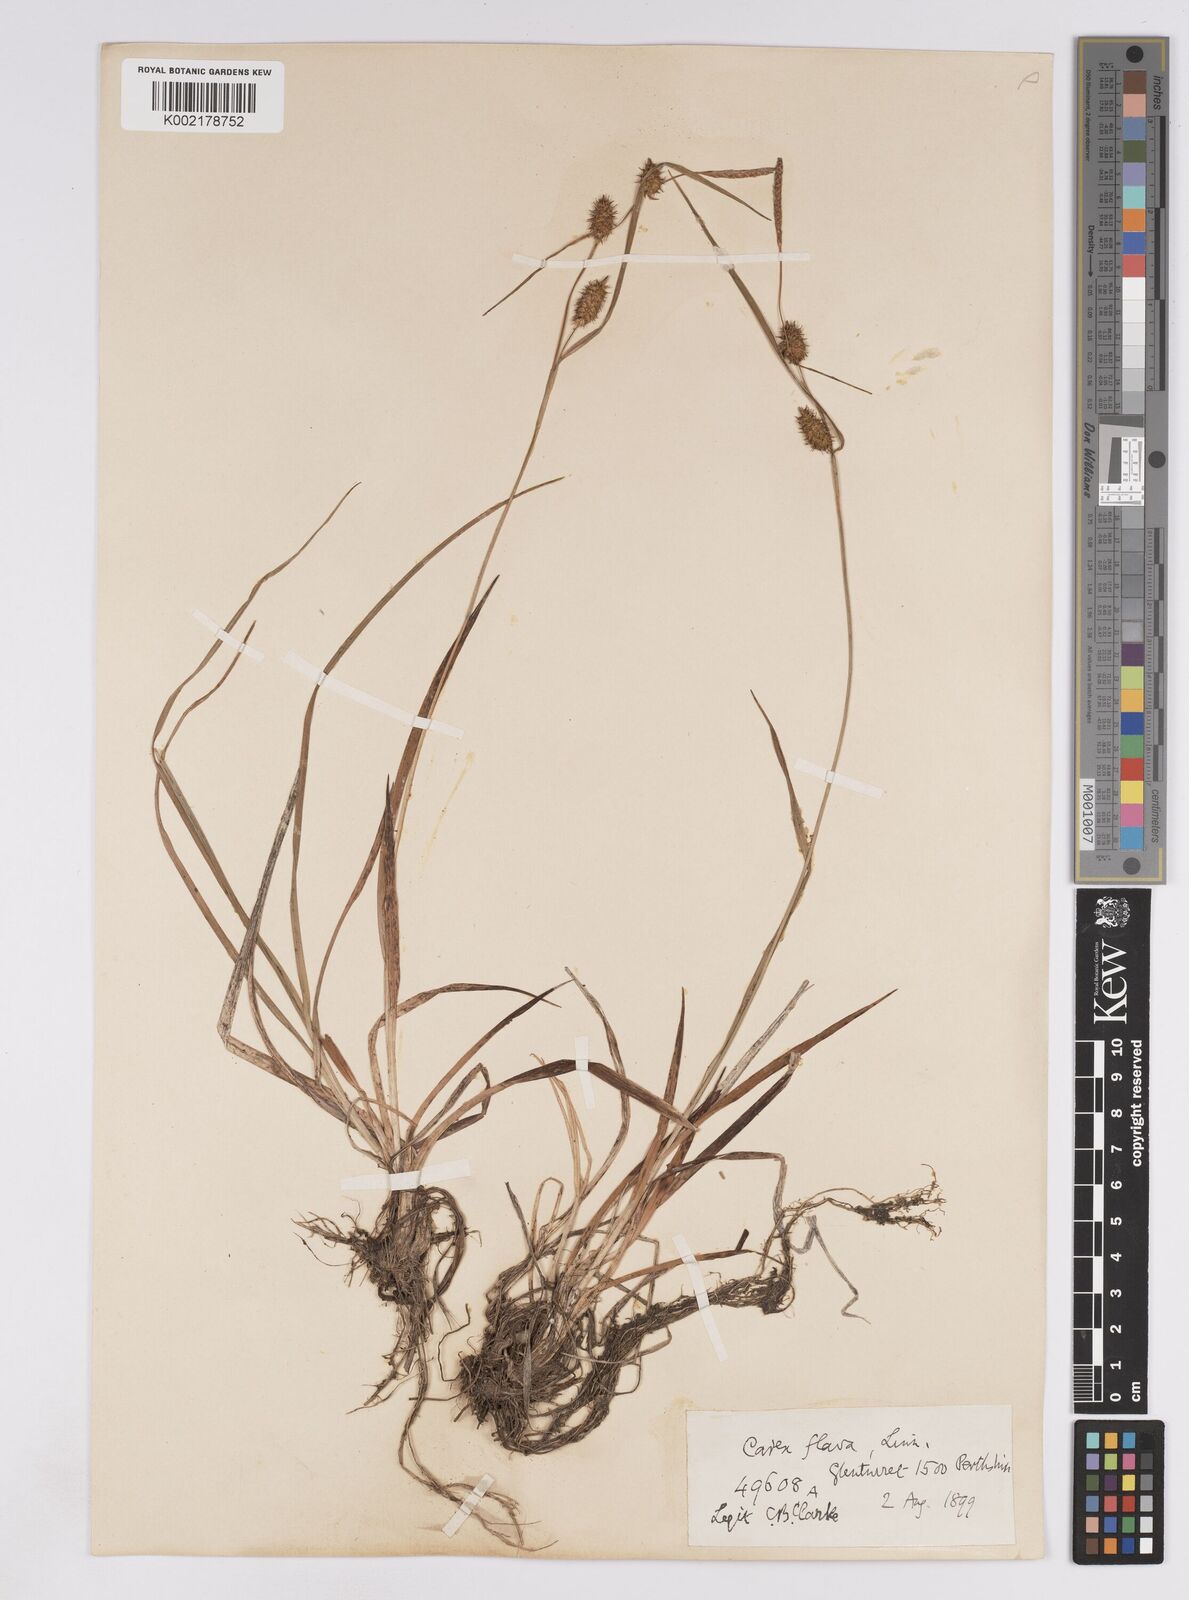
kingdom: Plantae
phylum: Tracheophyta
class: Liliopsida
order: Poales
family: Cyperaceae
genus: Carex
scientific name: Carex lepidocarpa
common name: Long-stalked yellow-sedge
